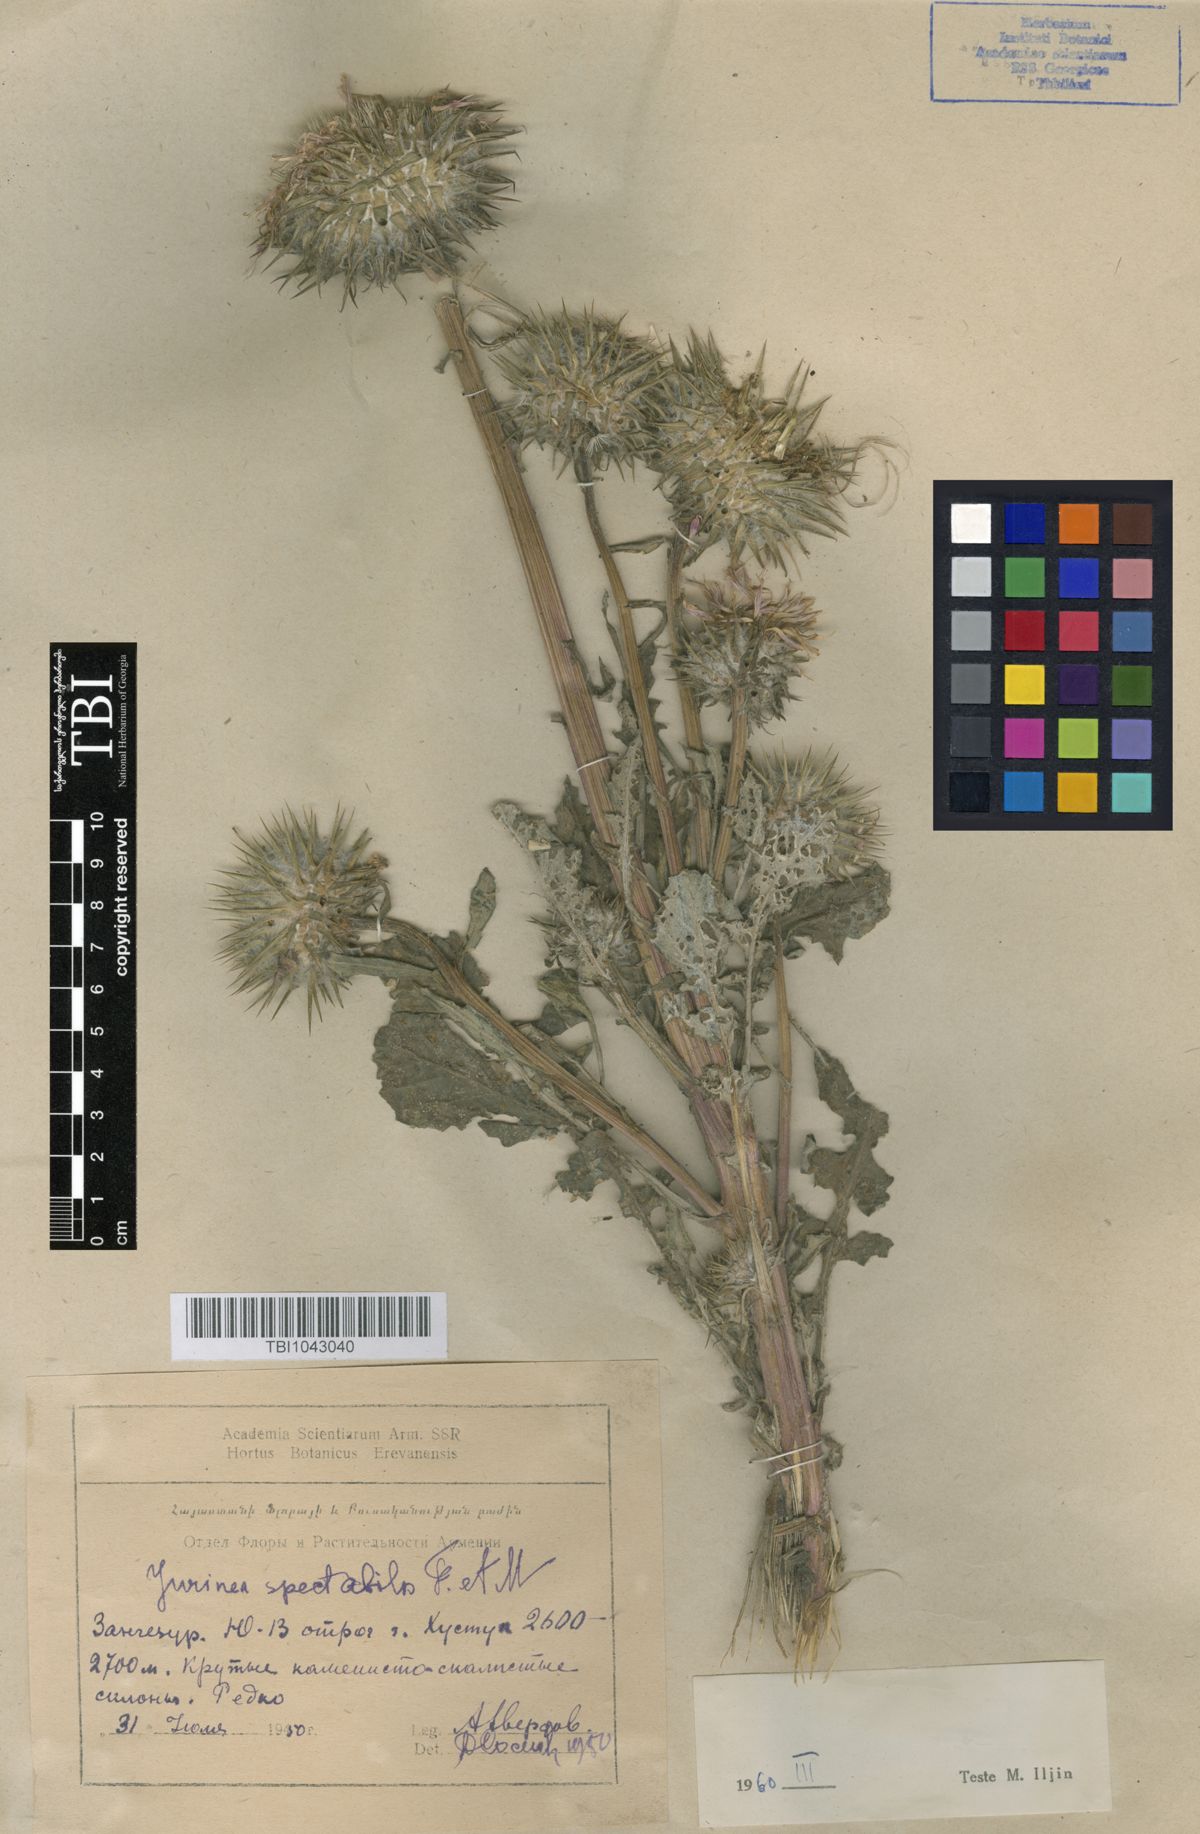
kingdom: Plantae
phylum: Tracheophyta
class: Magnoliopsida
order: Asterales
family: Asteraceae
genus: Jurinea
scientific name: Jurinea spectabilis
